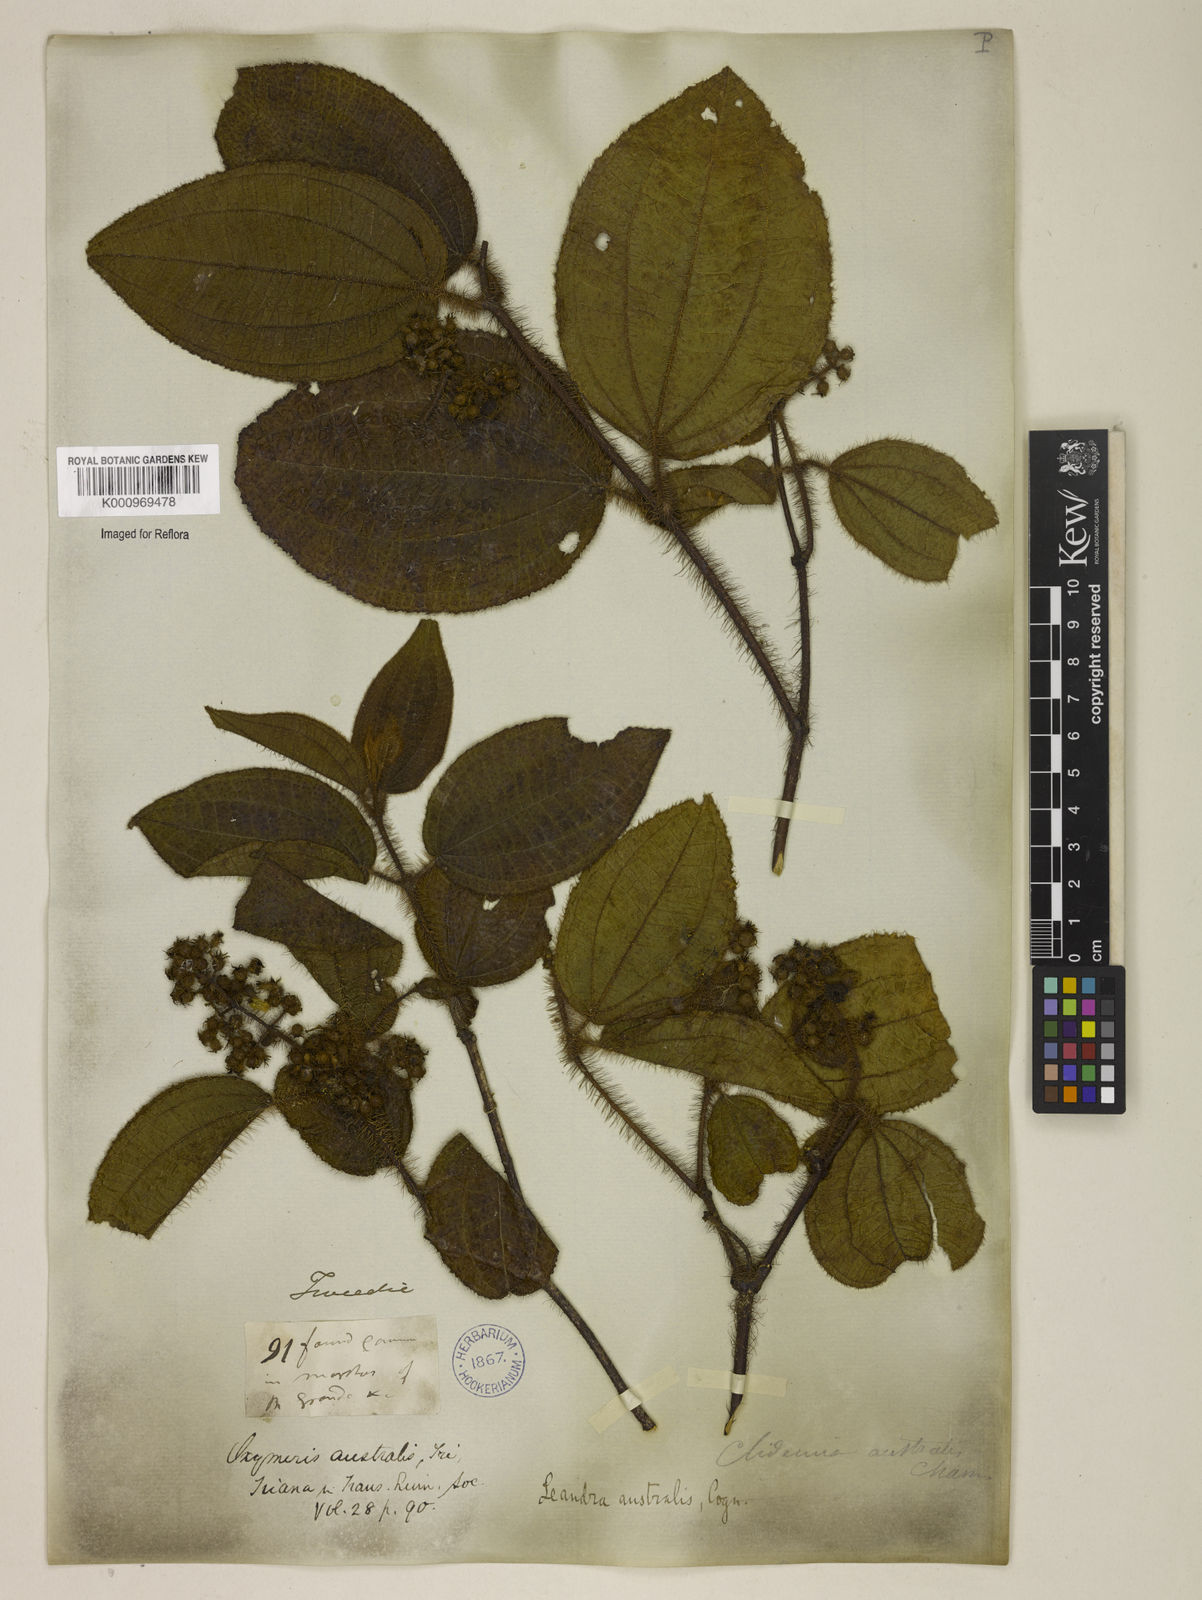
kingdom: Plantae
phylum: Tracheophyta
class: Magnoliopsida
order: Myrtales
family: Melastomataceae
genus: Miconia
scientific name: Miconia australis
